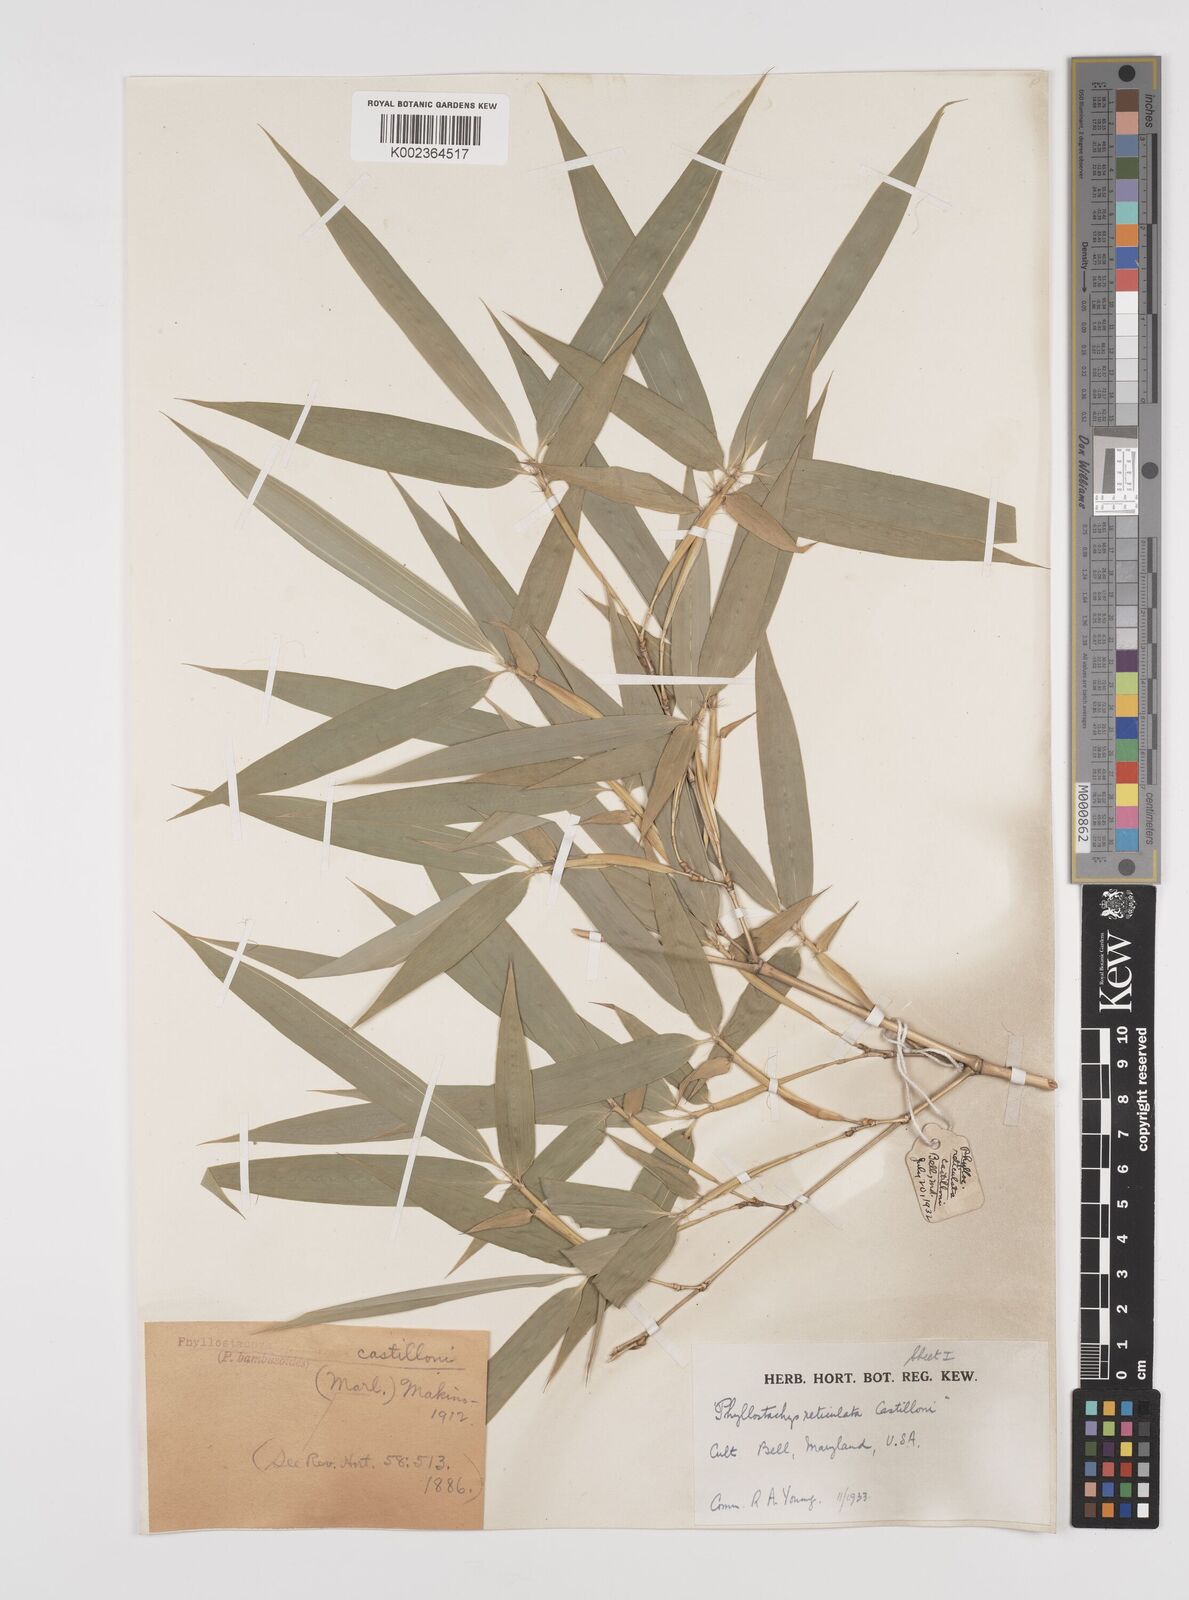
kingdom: Plantae
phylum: Tracheophyta
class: Liliopsida
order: Poales
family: Poaceae
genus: Phyllostachys
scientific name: Phyllostachys reticulata
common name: Bamboo
